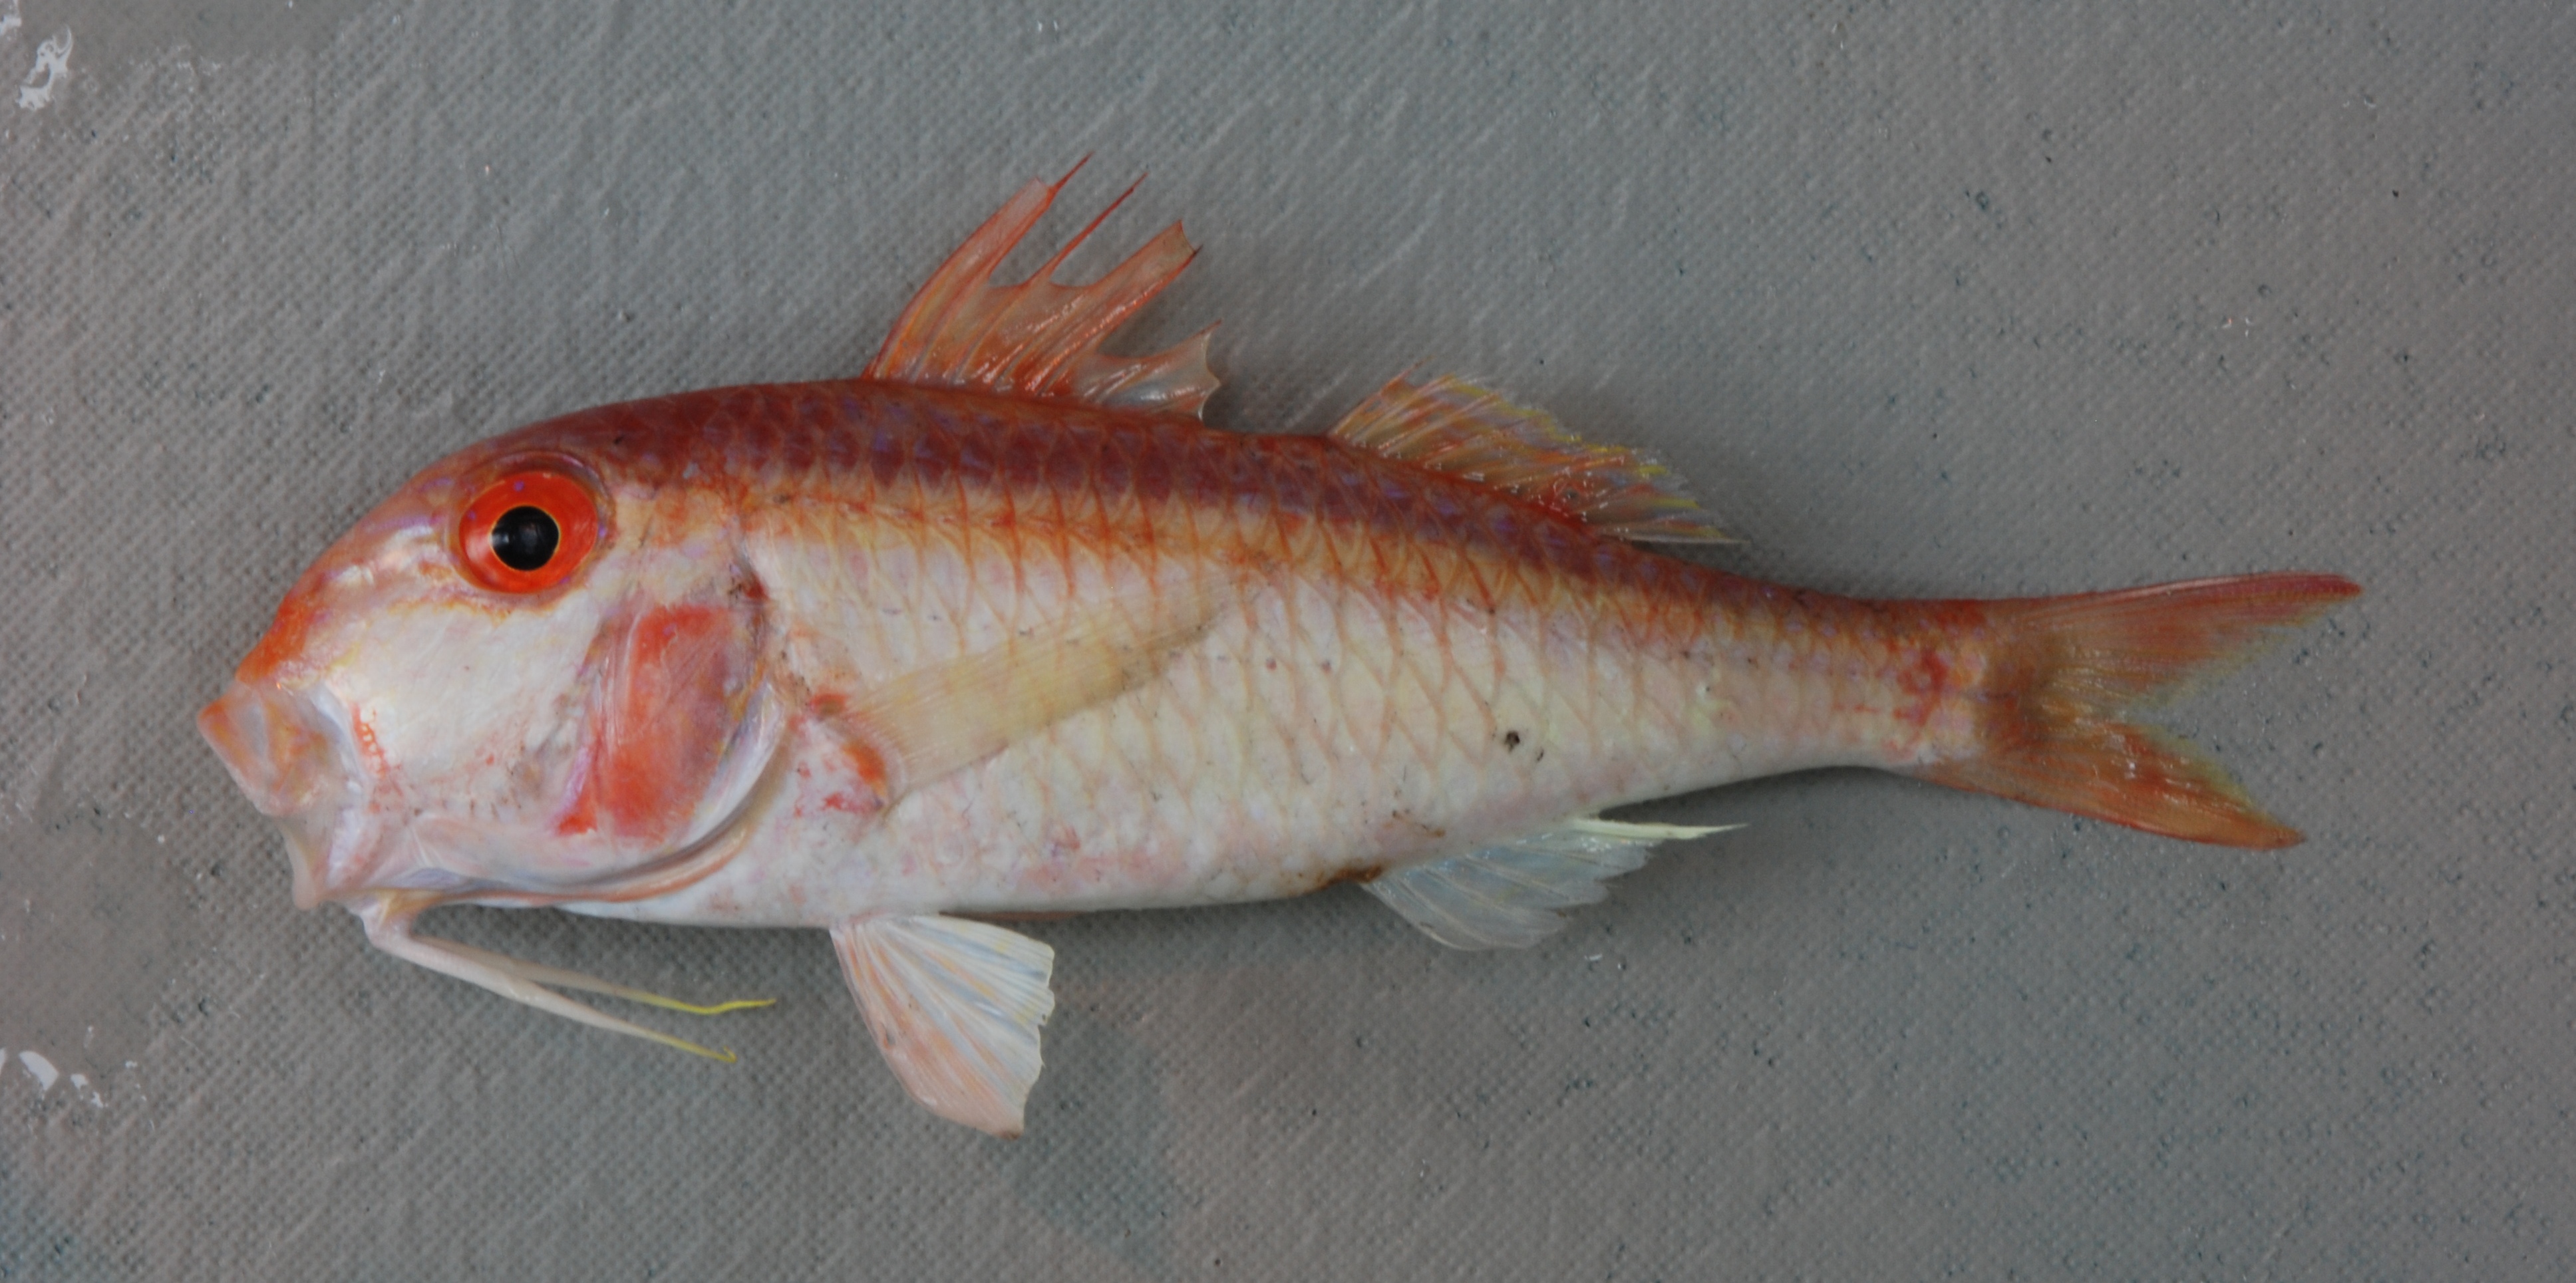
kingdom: Animalia
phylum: Chordata
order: Perciformes
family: Mullidae
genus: Parupeneus
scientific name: Parupeneus fraserorum
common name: Fraser’s goatfish
